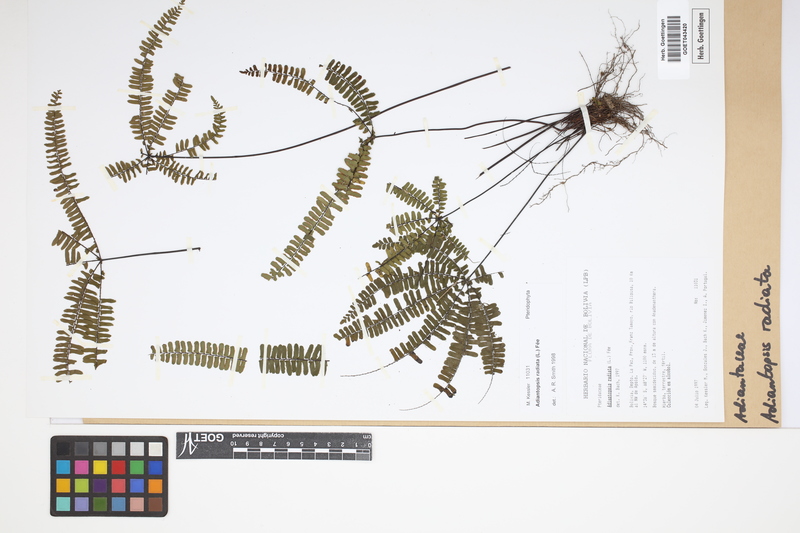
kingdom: Plantae
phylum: Tracheophyta
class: Polypodiopsida
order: Polypodiales
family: Pteridaceae
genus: Adiantopsis
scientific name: Adiantopsis radiata
